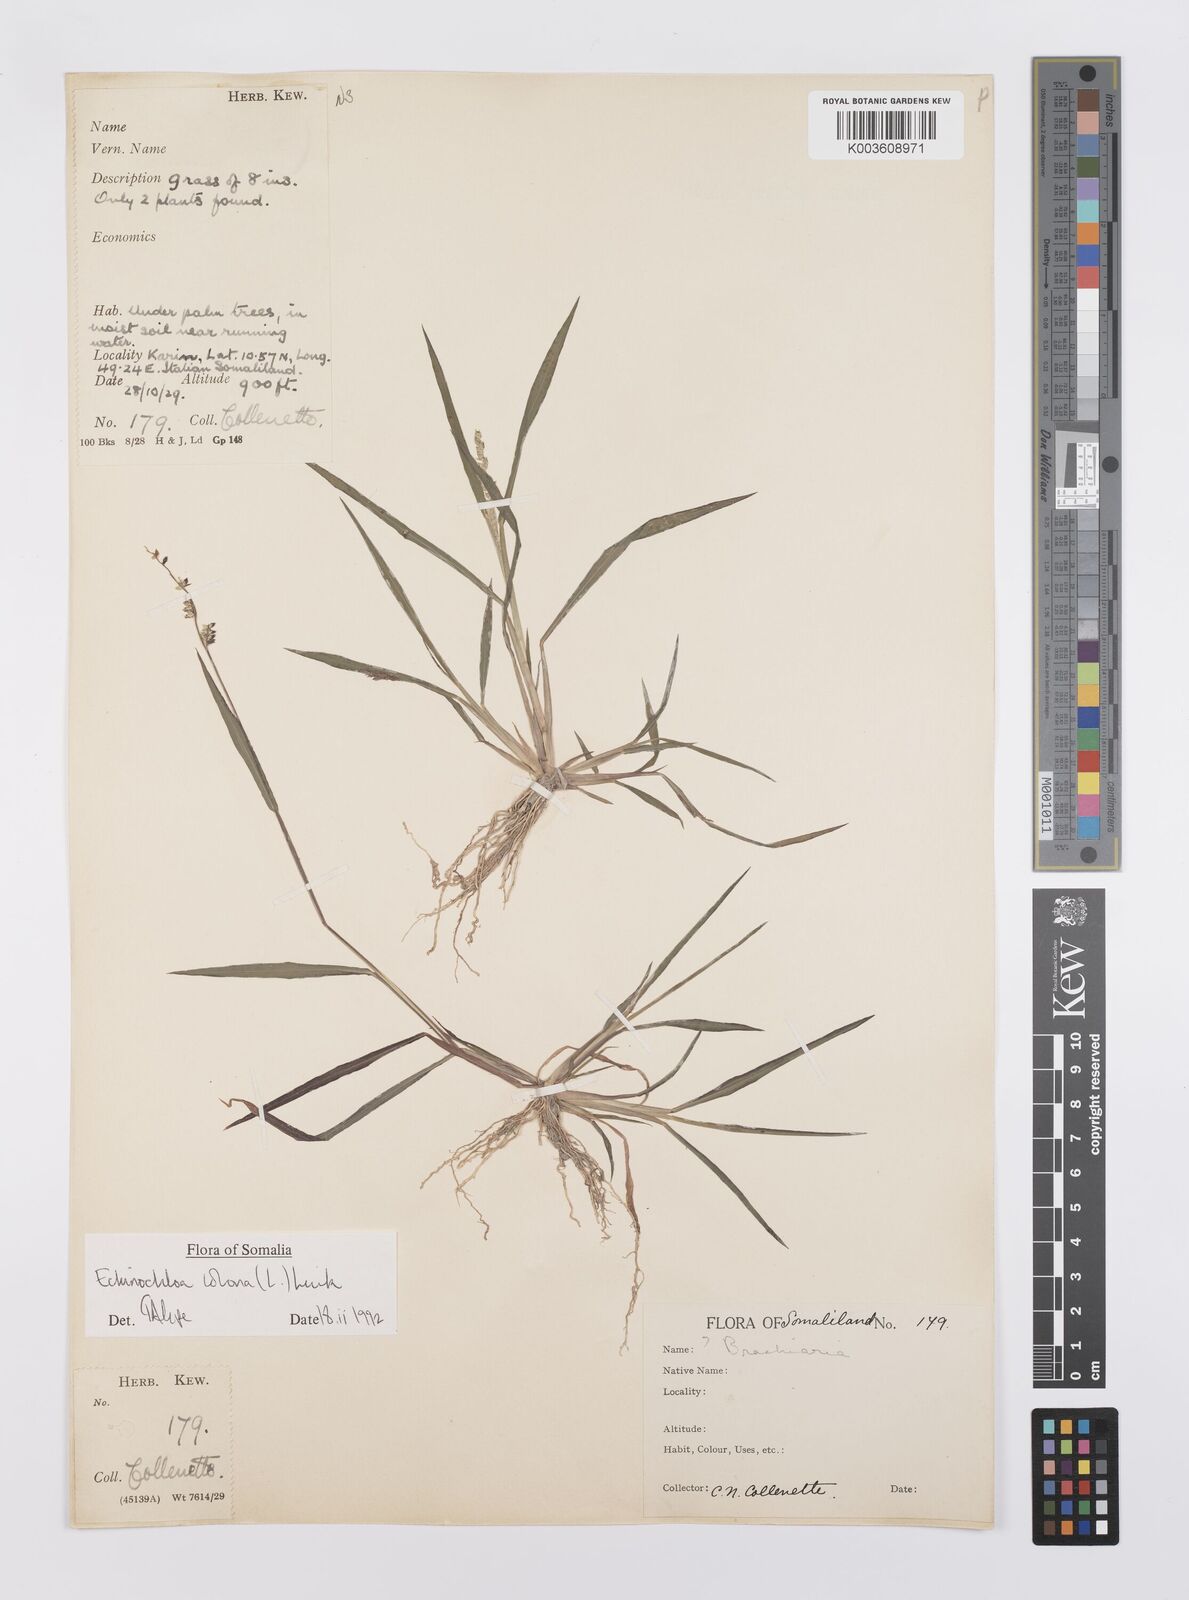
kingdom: Plantae
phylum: Tracheophyta
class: Liliopsida
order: Poales
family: Poaceae
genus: Echinochloa
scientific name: Echinochloa colonum
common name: Jungle rice
